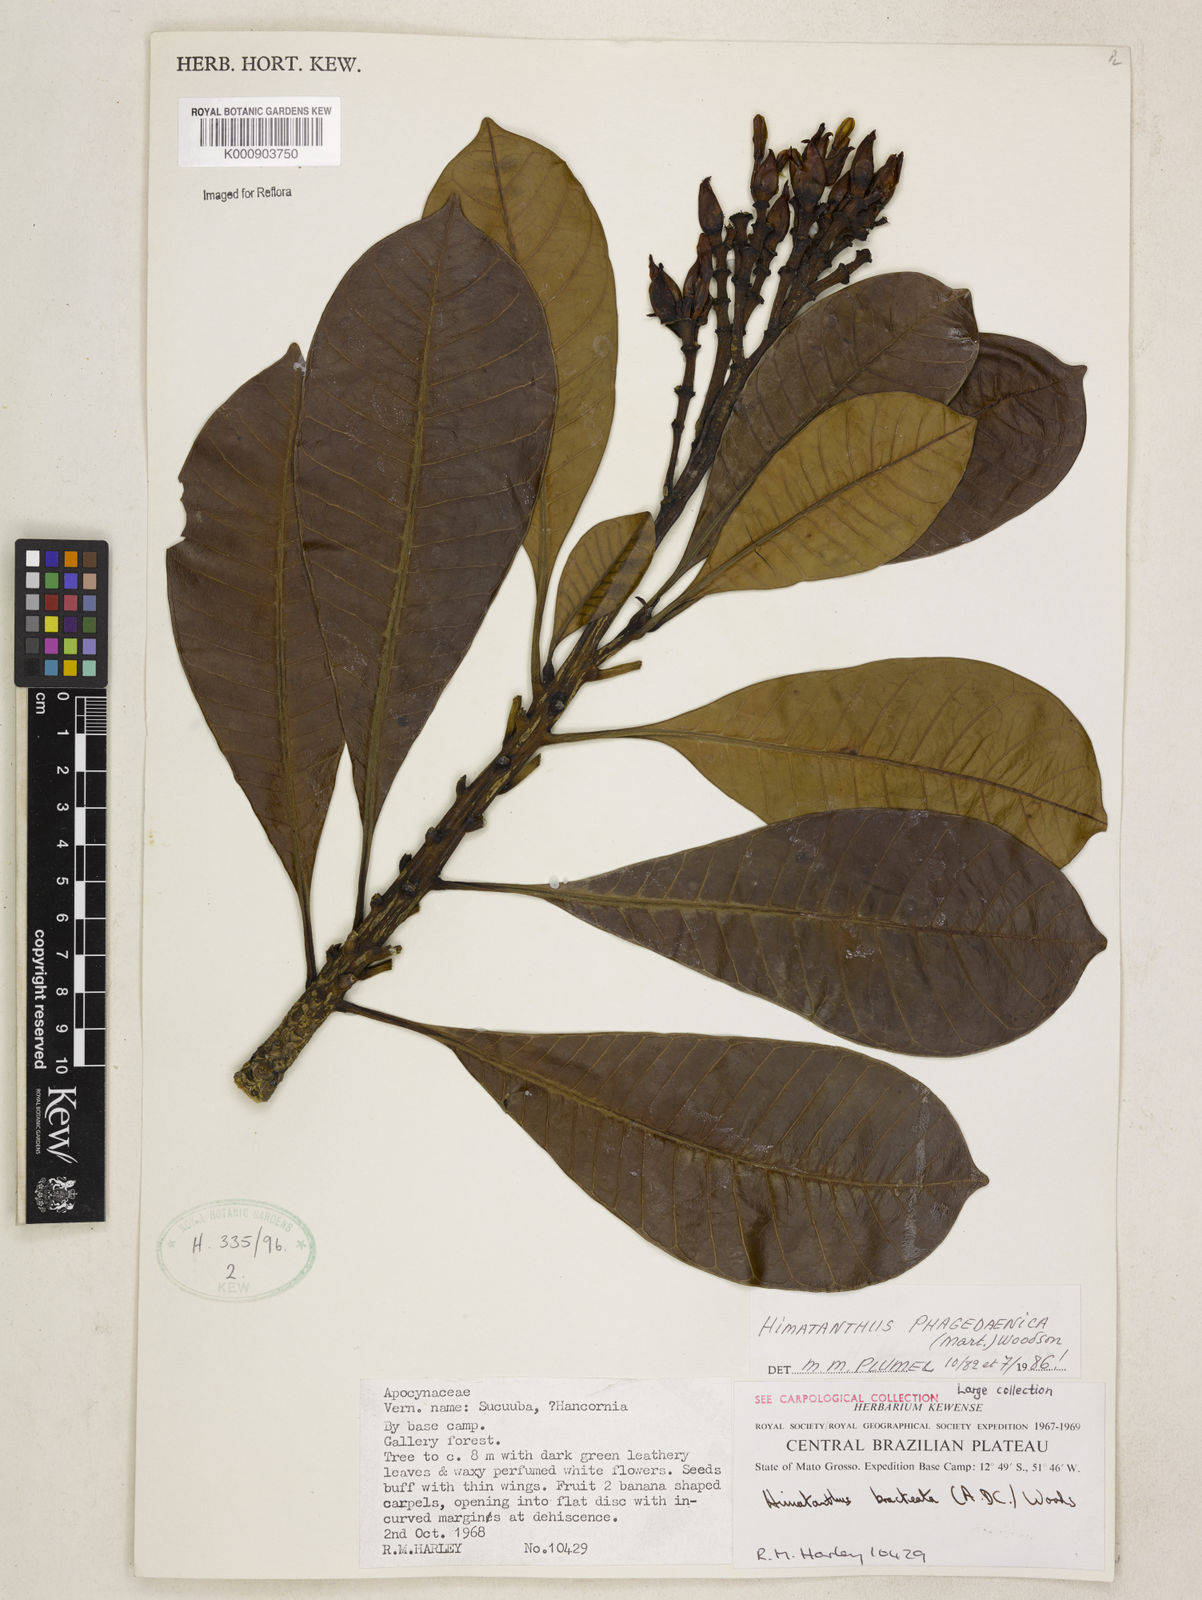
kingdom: Plantae
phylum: Tracheophyta
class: Magnoliopsida
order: Gentianales
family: Apocynaceae
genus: Himatanthus
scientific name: Himatanthus phagedaenicus
